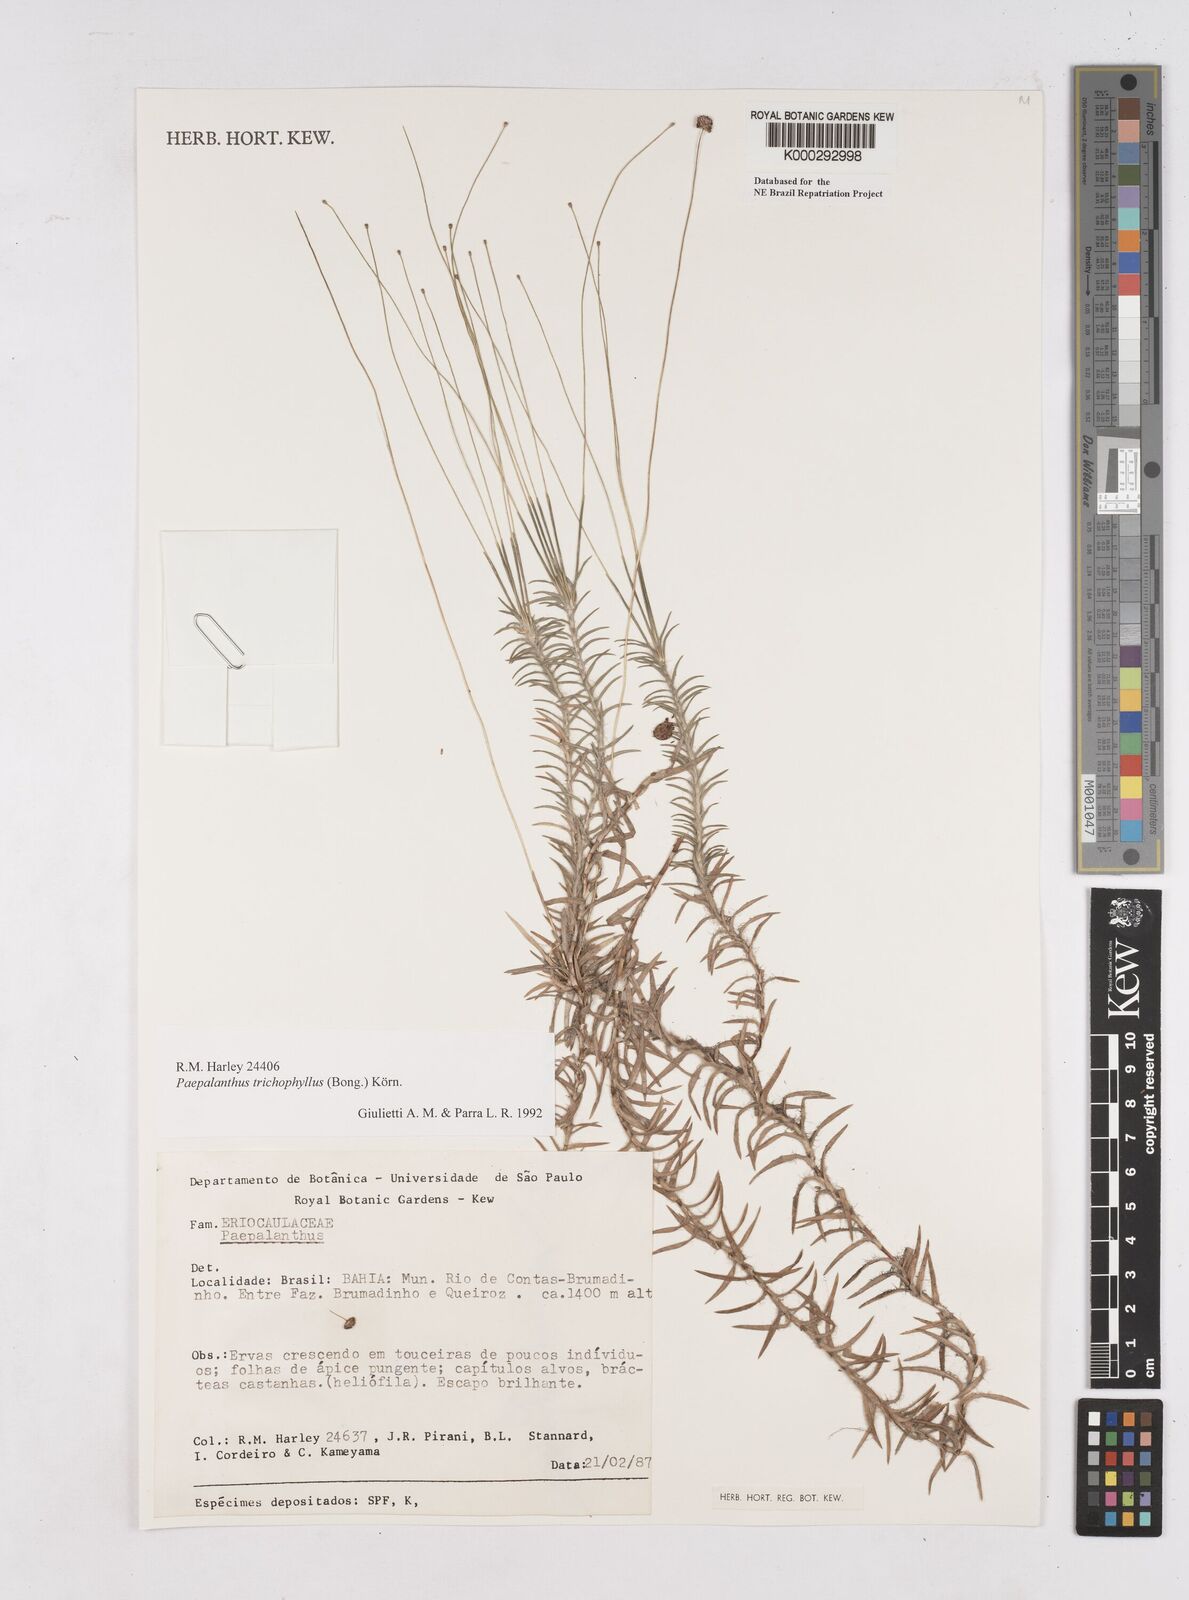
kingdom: Plantae
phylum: Tracheophyta
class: Liliopsida
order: Poales
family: Eriocaulaceae
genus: Paepalanthus
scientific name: Paepalanthus
